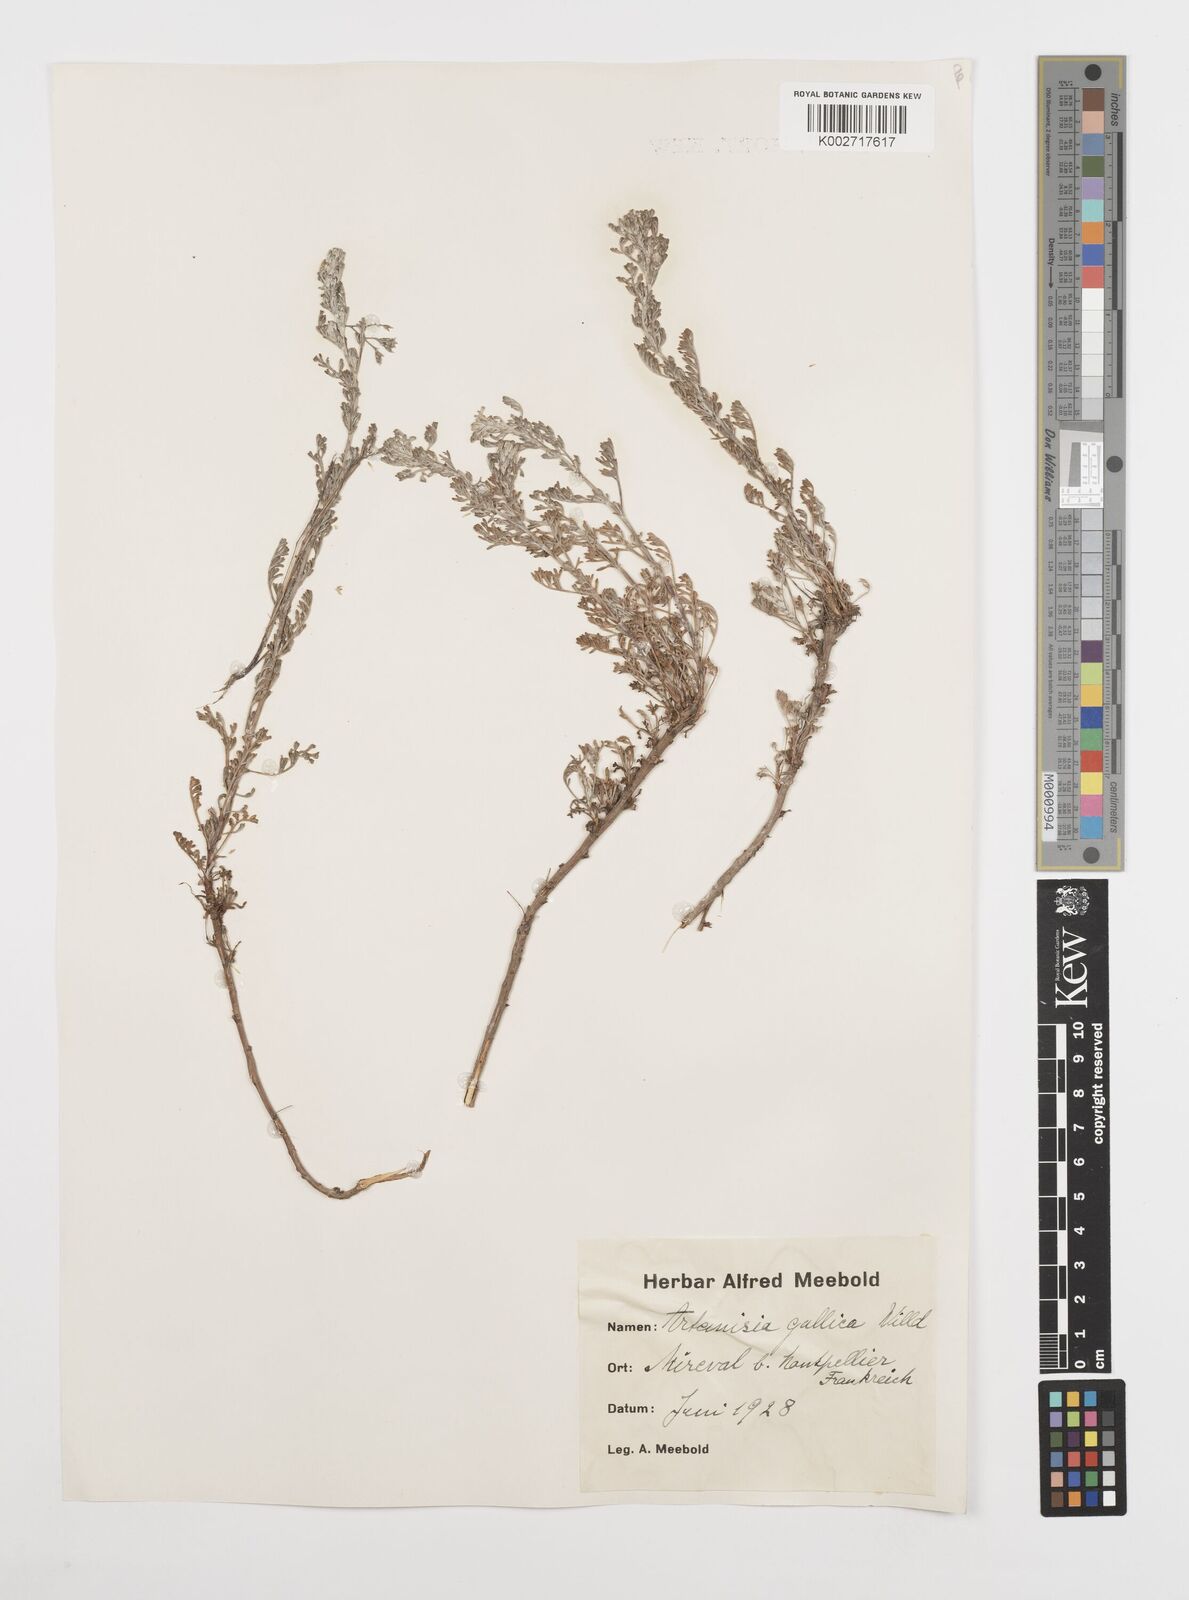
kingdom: Plantae
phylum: Tracheophyta
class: Magnoliopsida
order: Asterales
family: Asteraceae
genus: Artemisia
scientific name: Artemisia campestris
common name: Field wormwood
